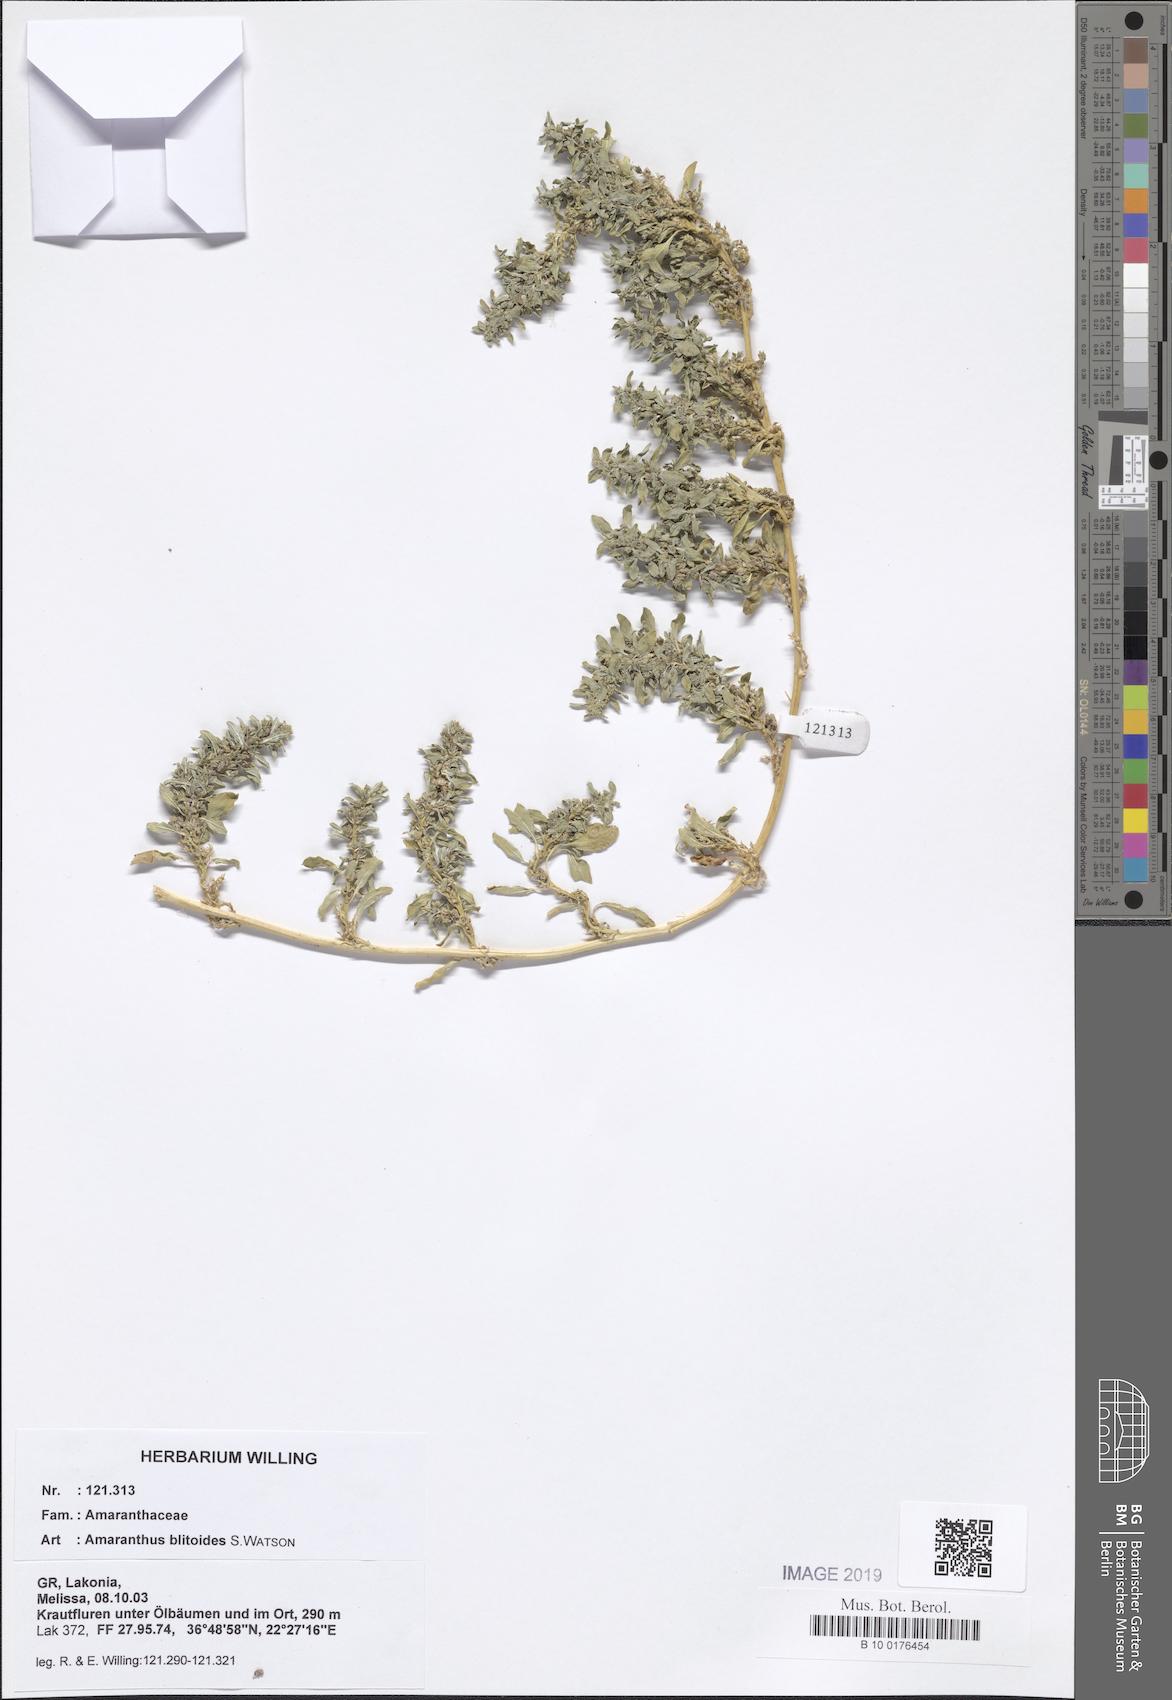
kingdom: Plantae
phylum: Tracheophyta
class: Magnoliopsida
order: Caryophyllales
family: Amaranthaceae
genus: Amaranthus
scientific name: Amaranthus blitoides
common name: Prostrate pigweed
